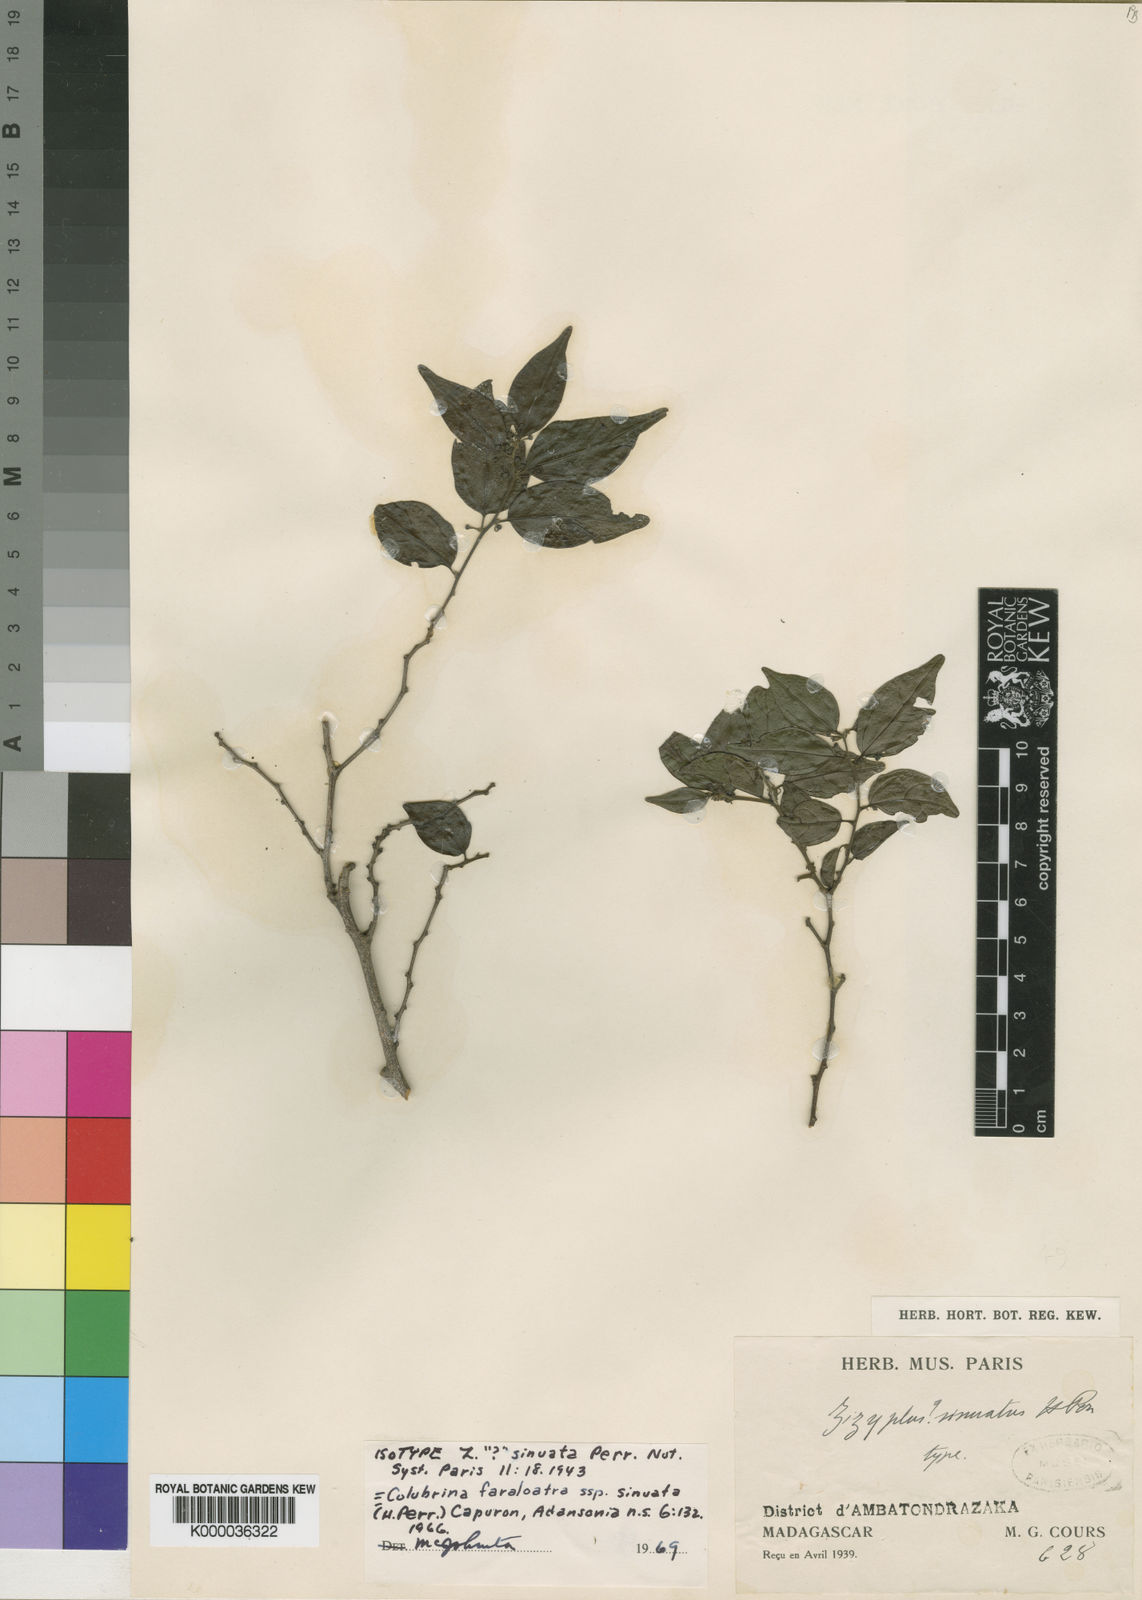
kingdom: Plantae
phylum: Tracheophyta
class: Magnoliopsida
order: Rosales
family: Rhamnaceae
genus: Colubrina
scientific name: Colubrina faralaotra
